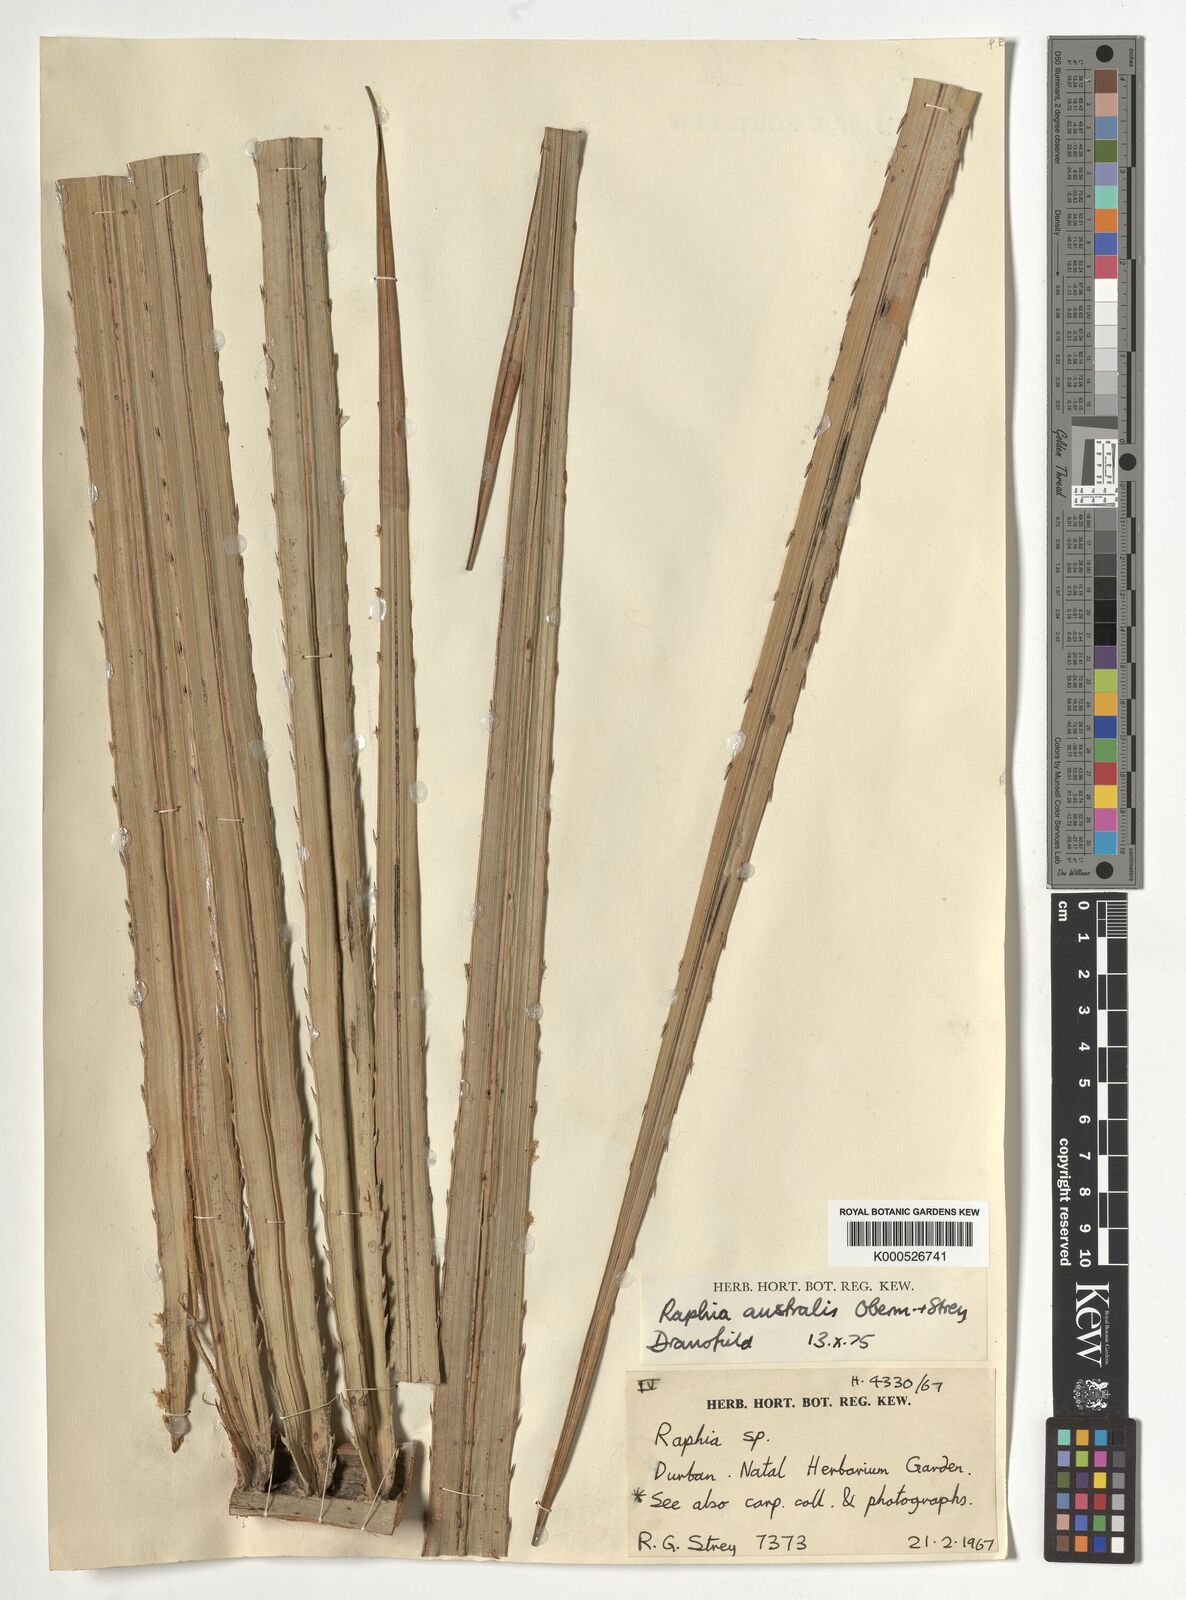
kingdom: Plantae
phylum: Tracheophyta
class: Liliopsida
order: Arecales
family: Arecaceae
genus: Raphia
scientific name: Raphia australis
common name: Giant palm
